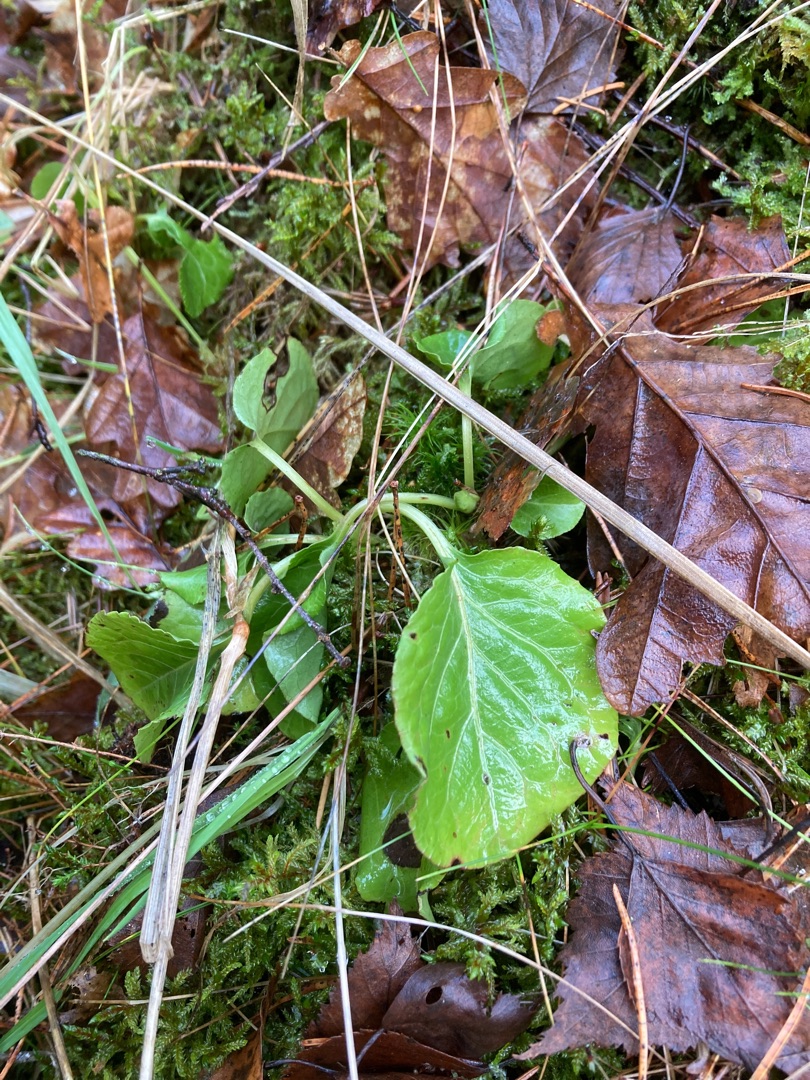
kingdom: Plantae
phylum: Tracheophyta
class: Magnoliopsida
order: Ericales
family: Ericaceae
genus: Pyrola
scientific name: Pyrola minor
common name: Liden vintergrøn
